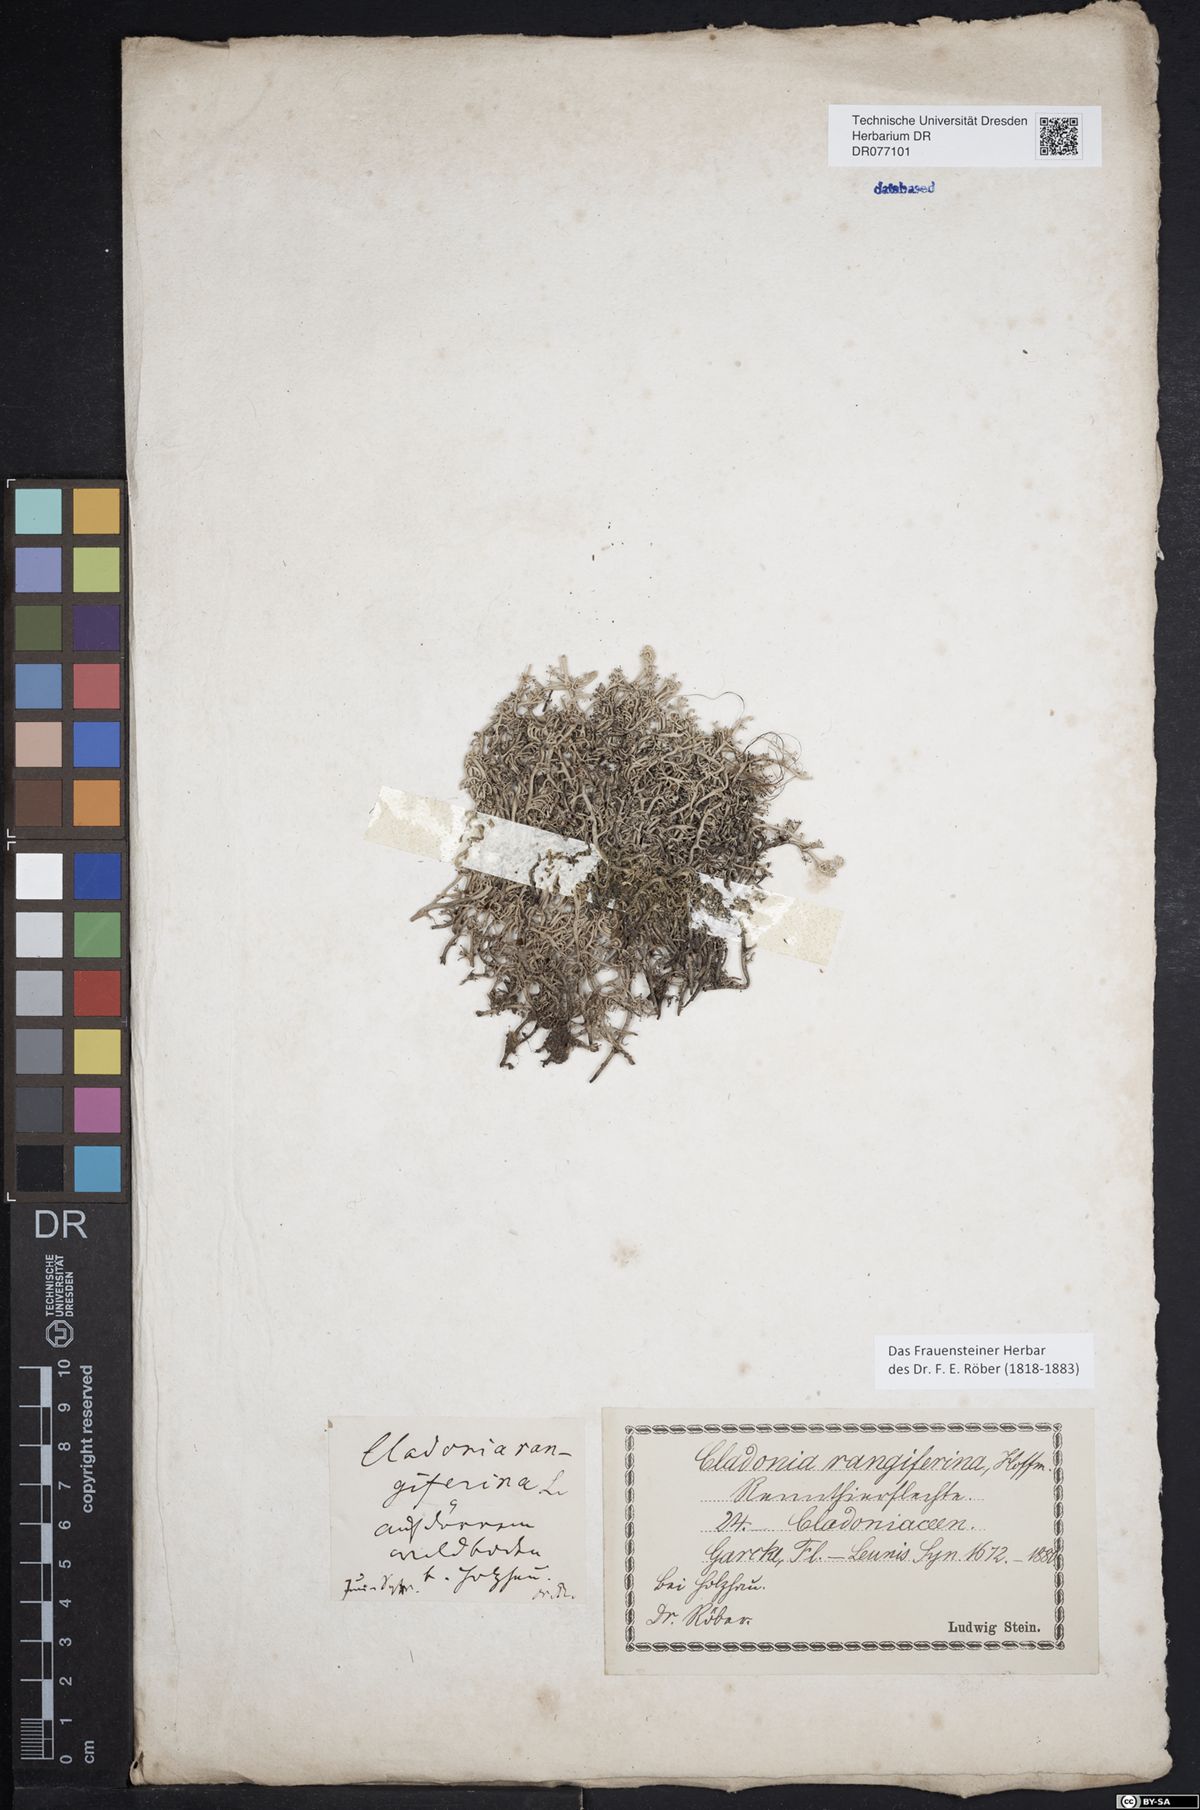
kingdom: Fungi
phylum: Ascomycota
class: Lecanoromycetes
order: Lecanorales
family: Cladoniaceae
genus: Cladonia
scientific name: Cladonia rangiferina
